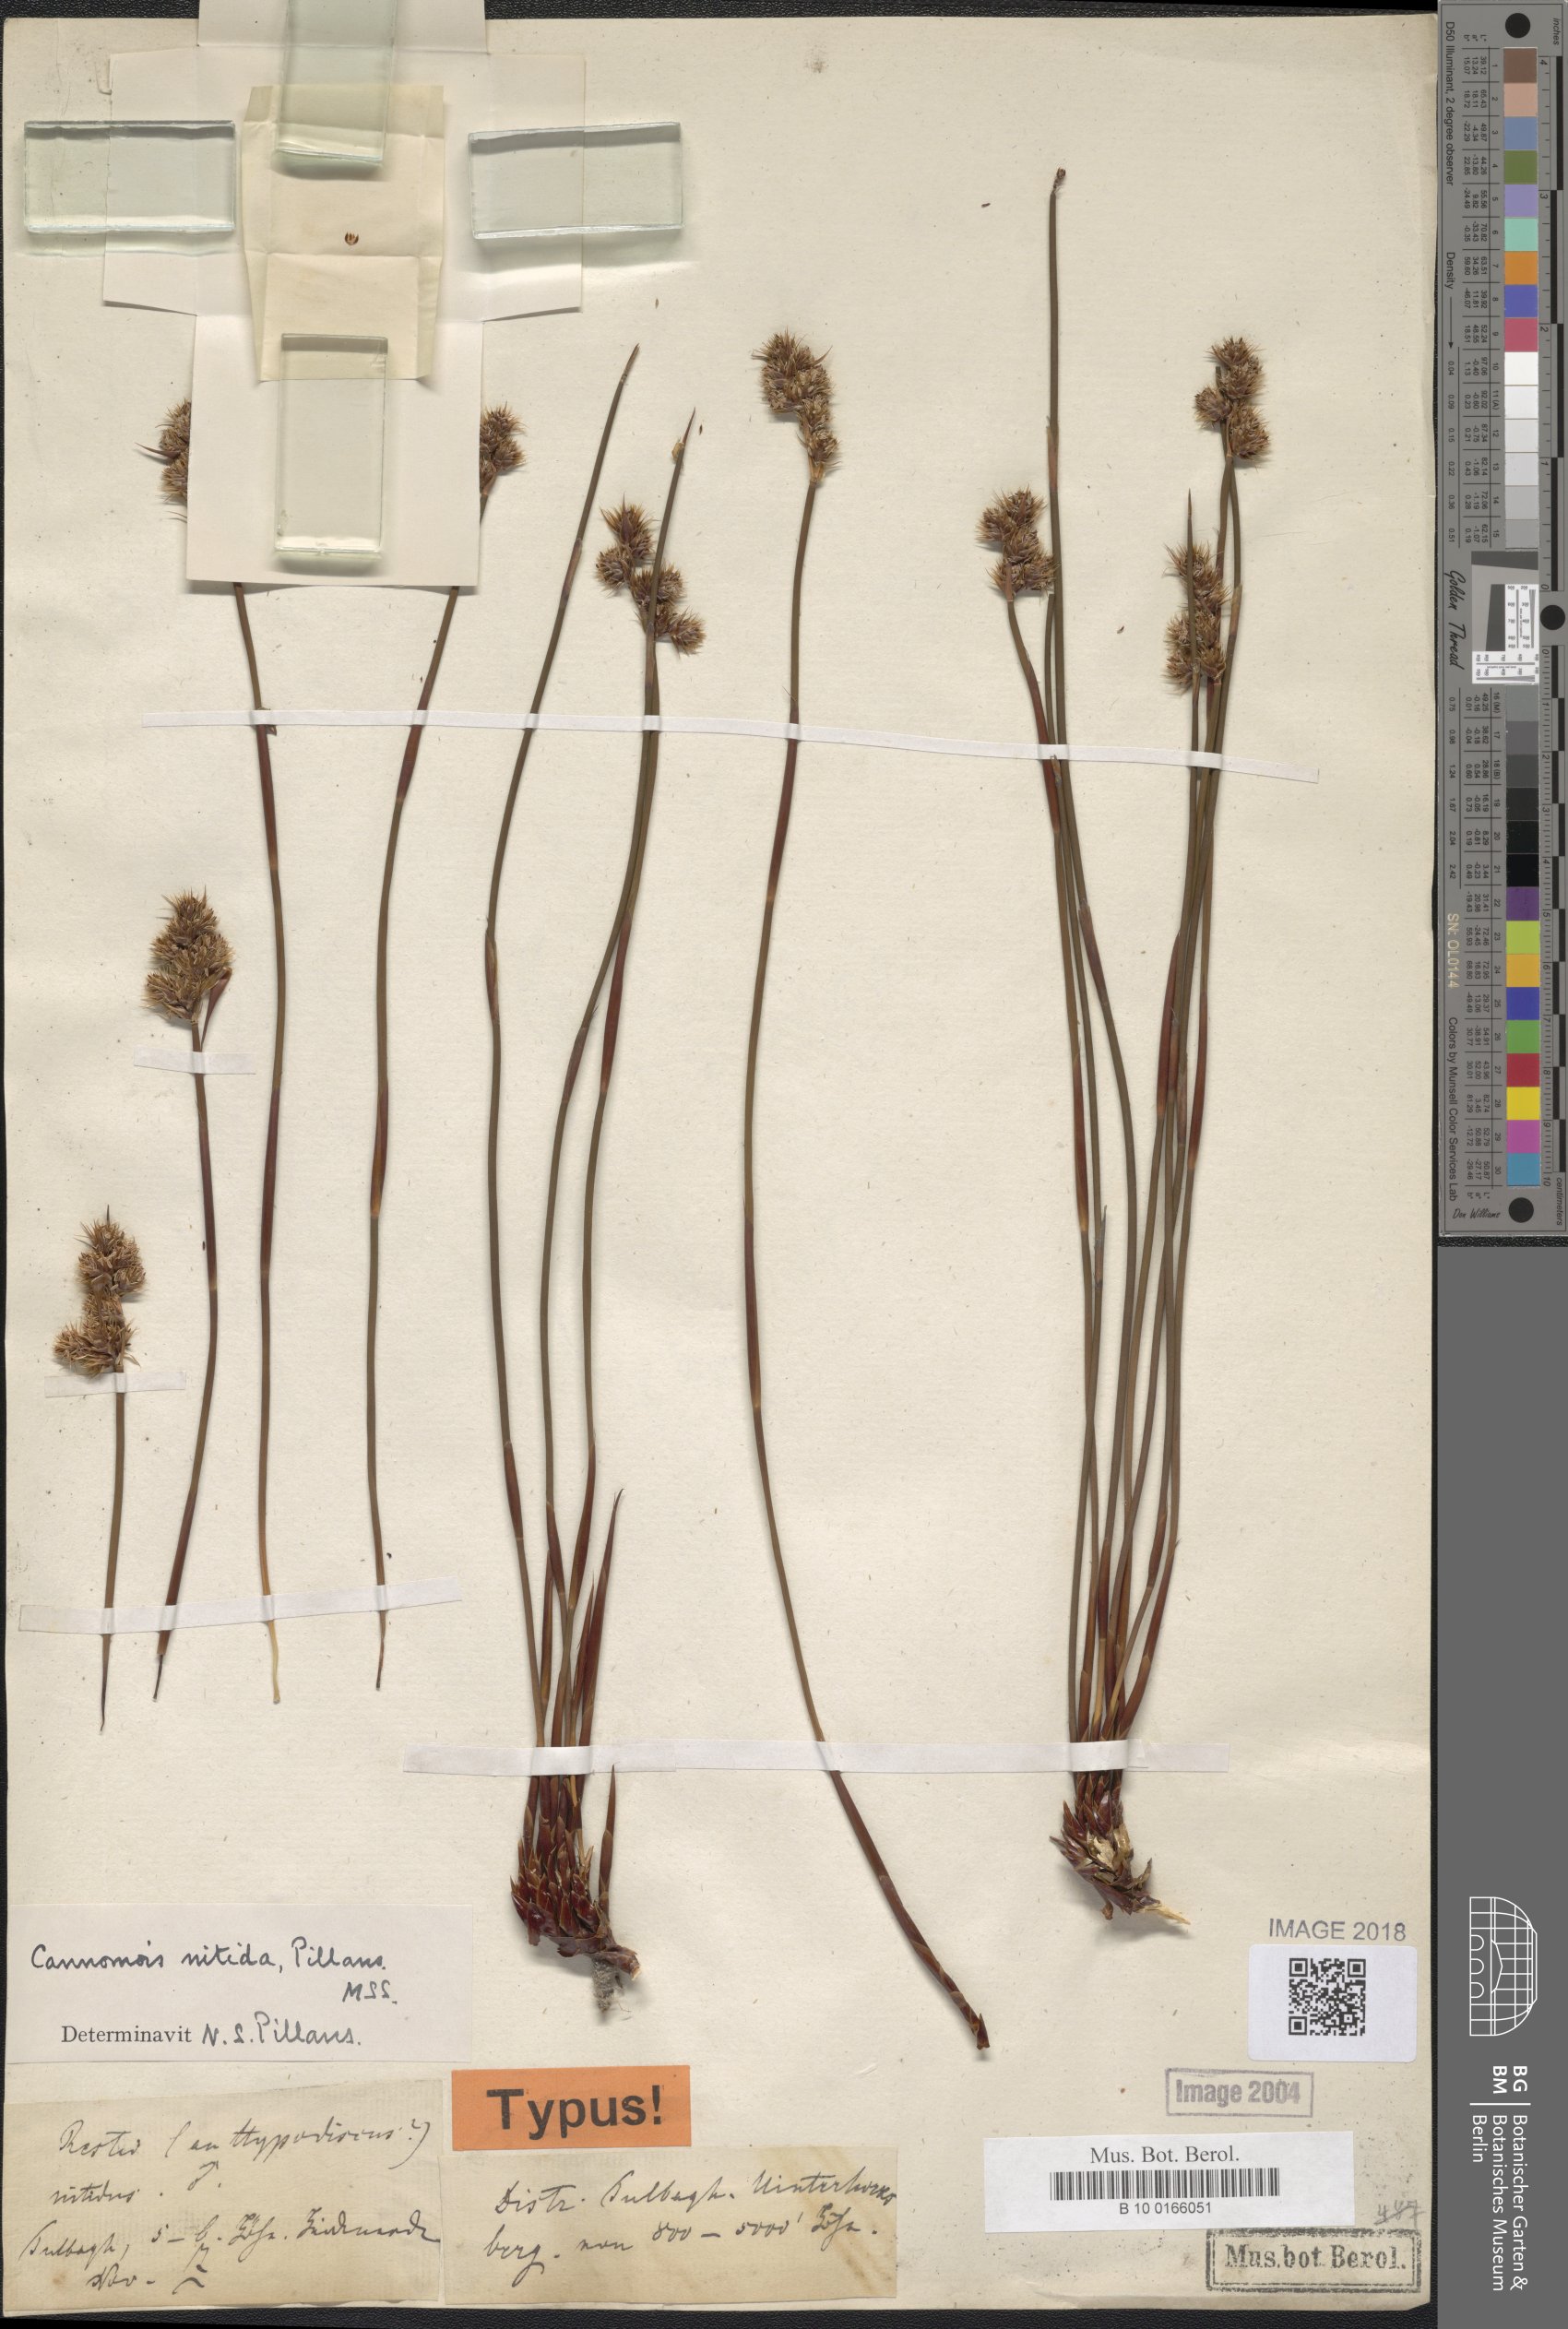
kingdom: Plantae
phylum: Tracheophyta
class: Liliopsida
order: Poales
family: Restionaceae
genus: Cannomois
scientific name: Cannomois nitida
